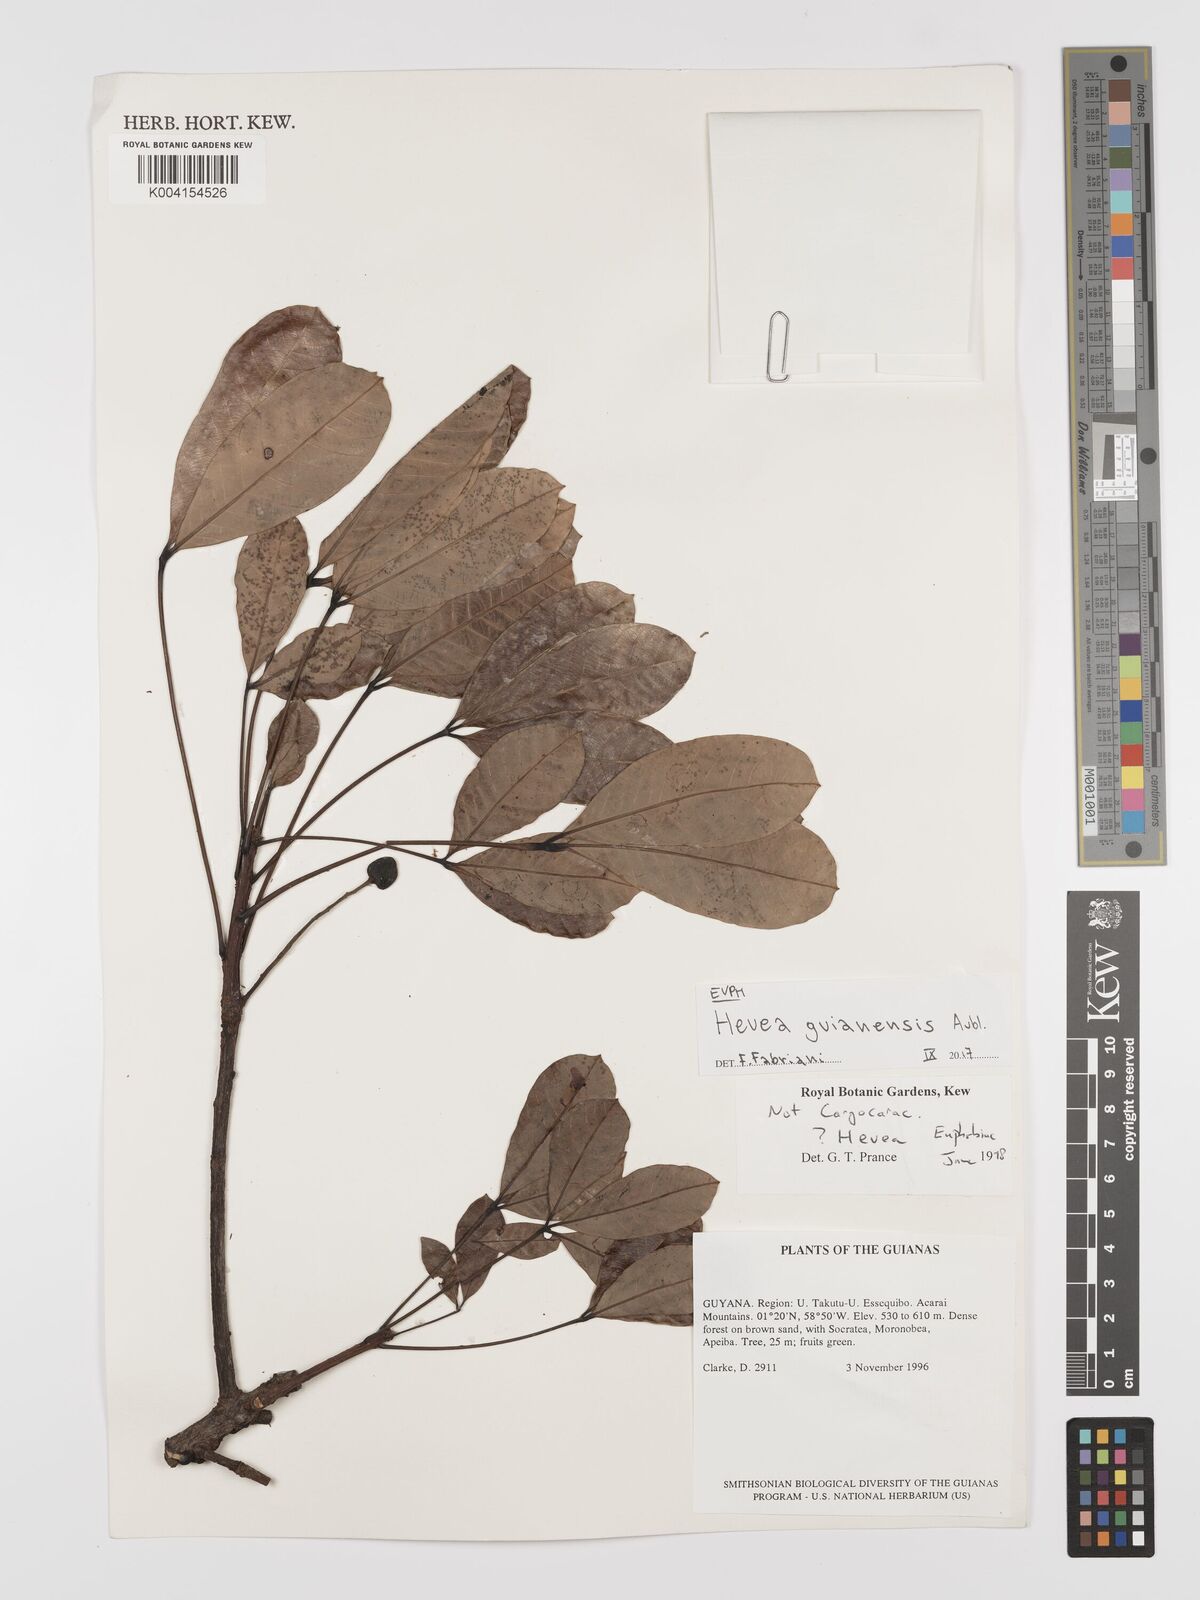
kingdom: Plantae
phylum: Tracheophyta
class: Magnoliopsida
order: Malpighiales
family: Euphorbiaceae
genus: Hevea
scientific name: Hevea guianensis
